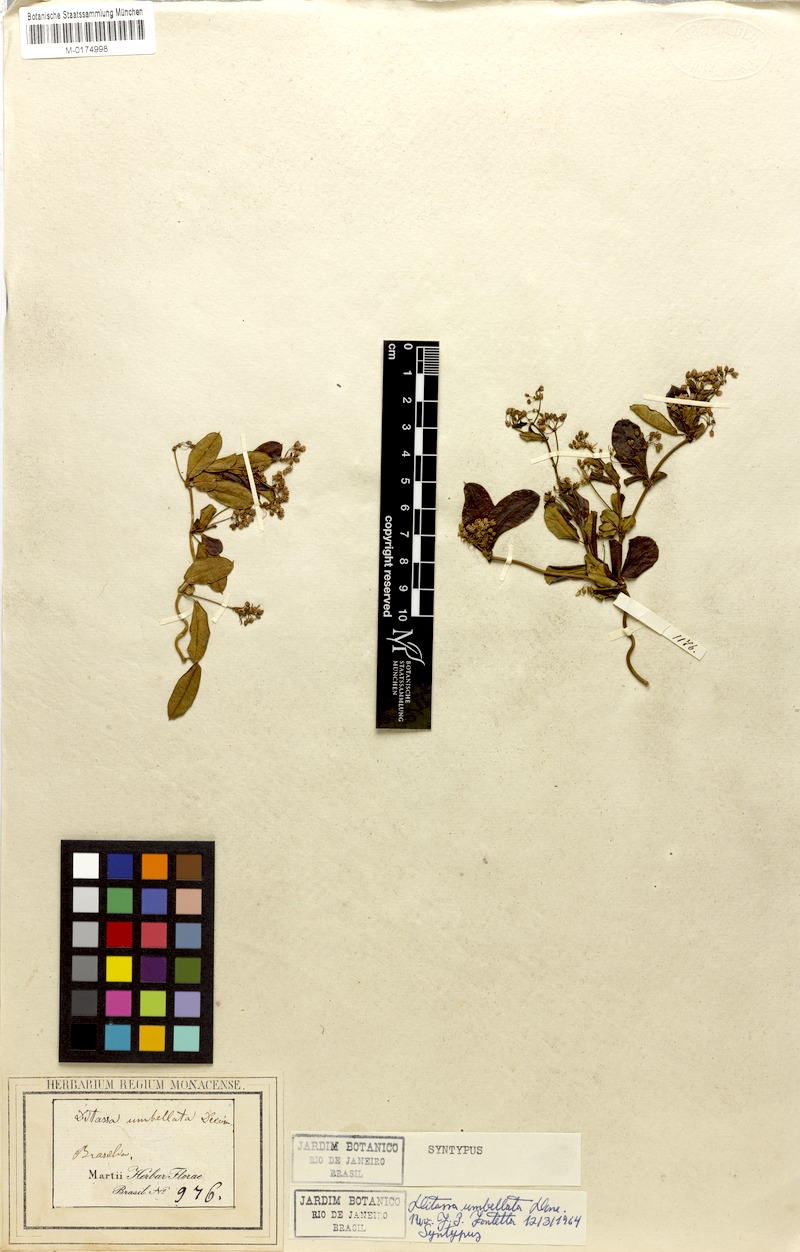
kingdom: Plantae
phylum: Tracheophyta
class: Magnoliopsida
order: Gentianales
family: Apocynaceae
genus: Ditassa
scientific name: Ditassa banksii
